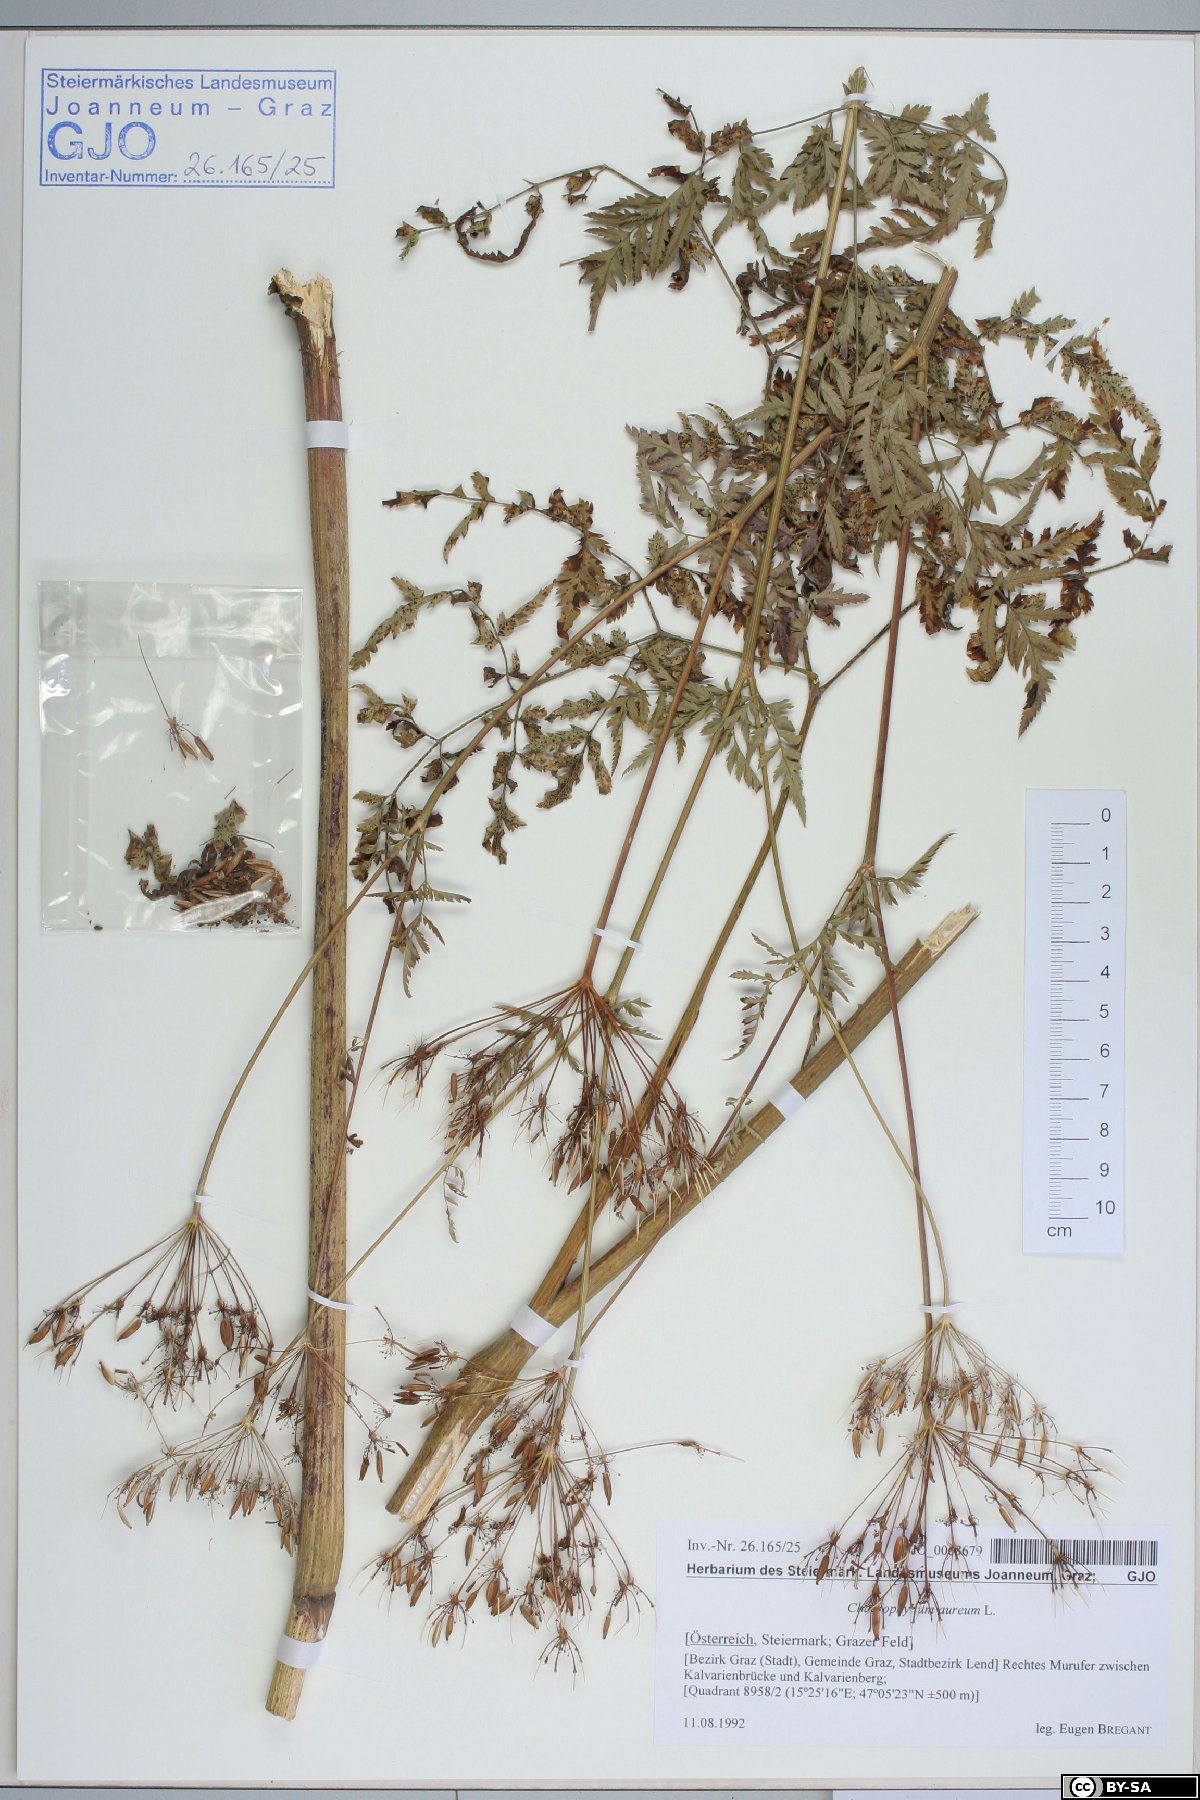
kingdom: Plantae
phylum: Tracheophyta
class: Magnoliopsida
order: Apiales
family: Apiaceae
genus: Chaerophyllum
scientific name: Chaerophyllum aureum
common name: Golden chervil
